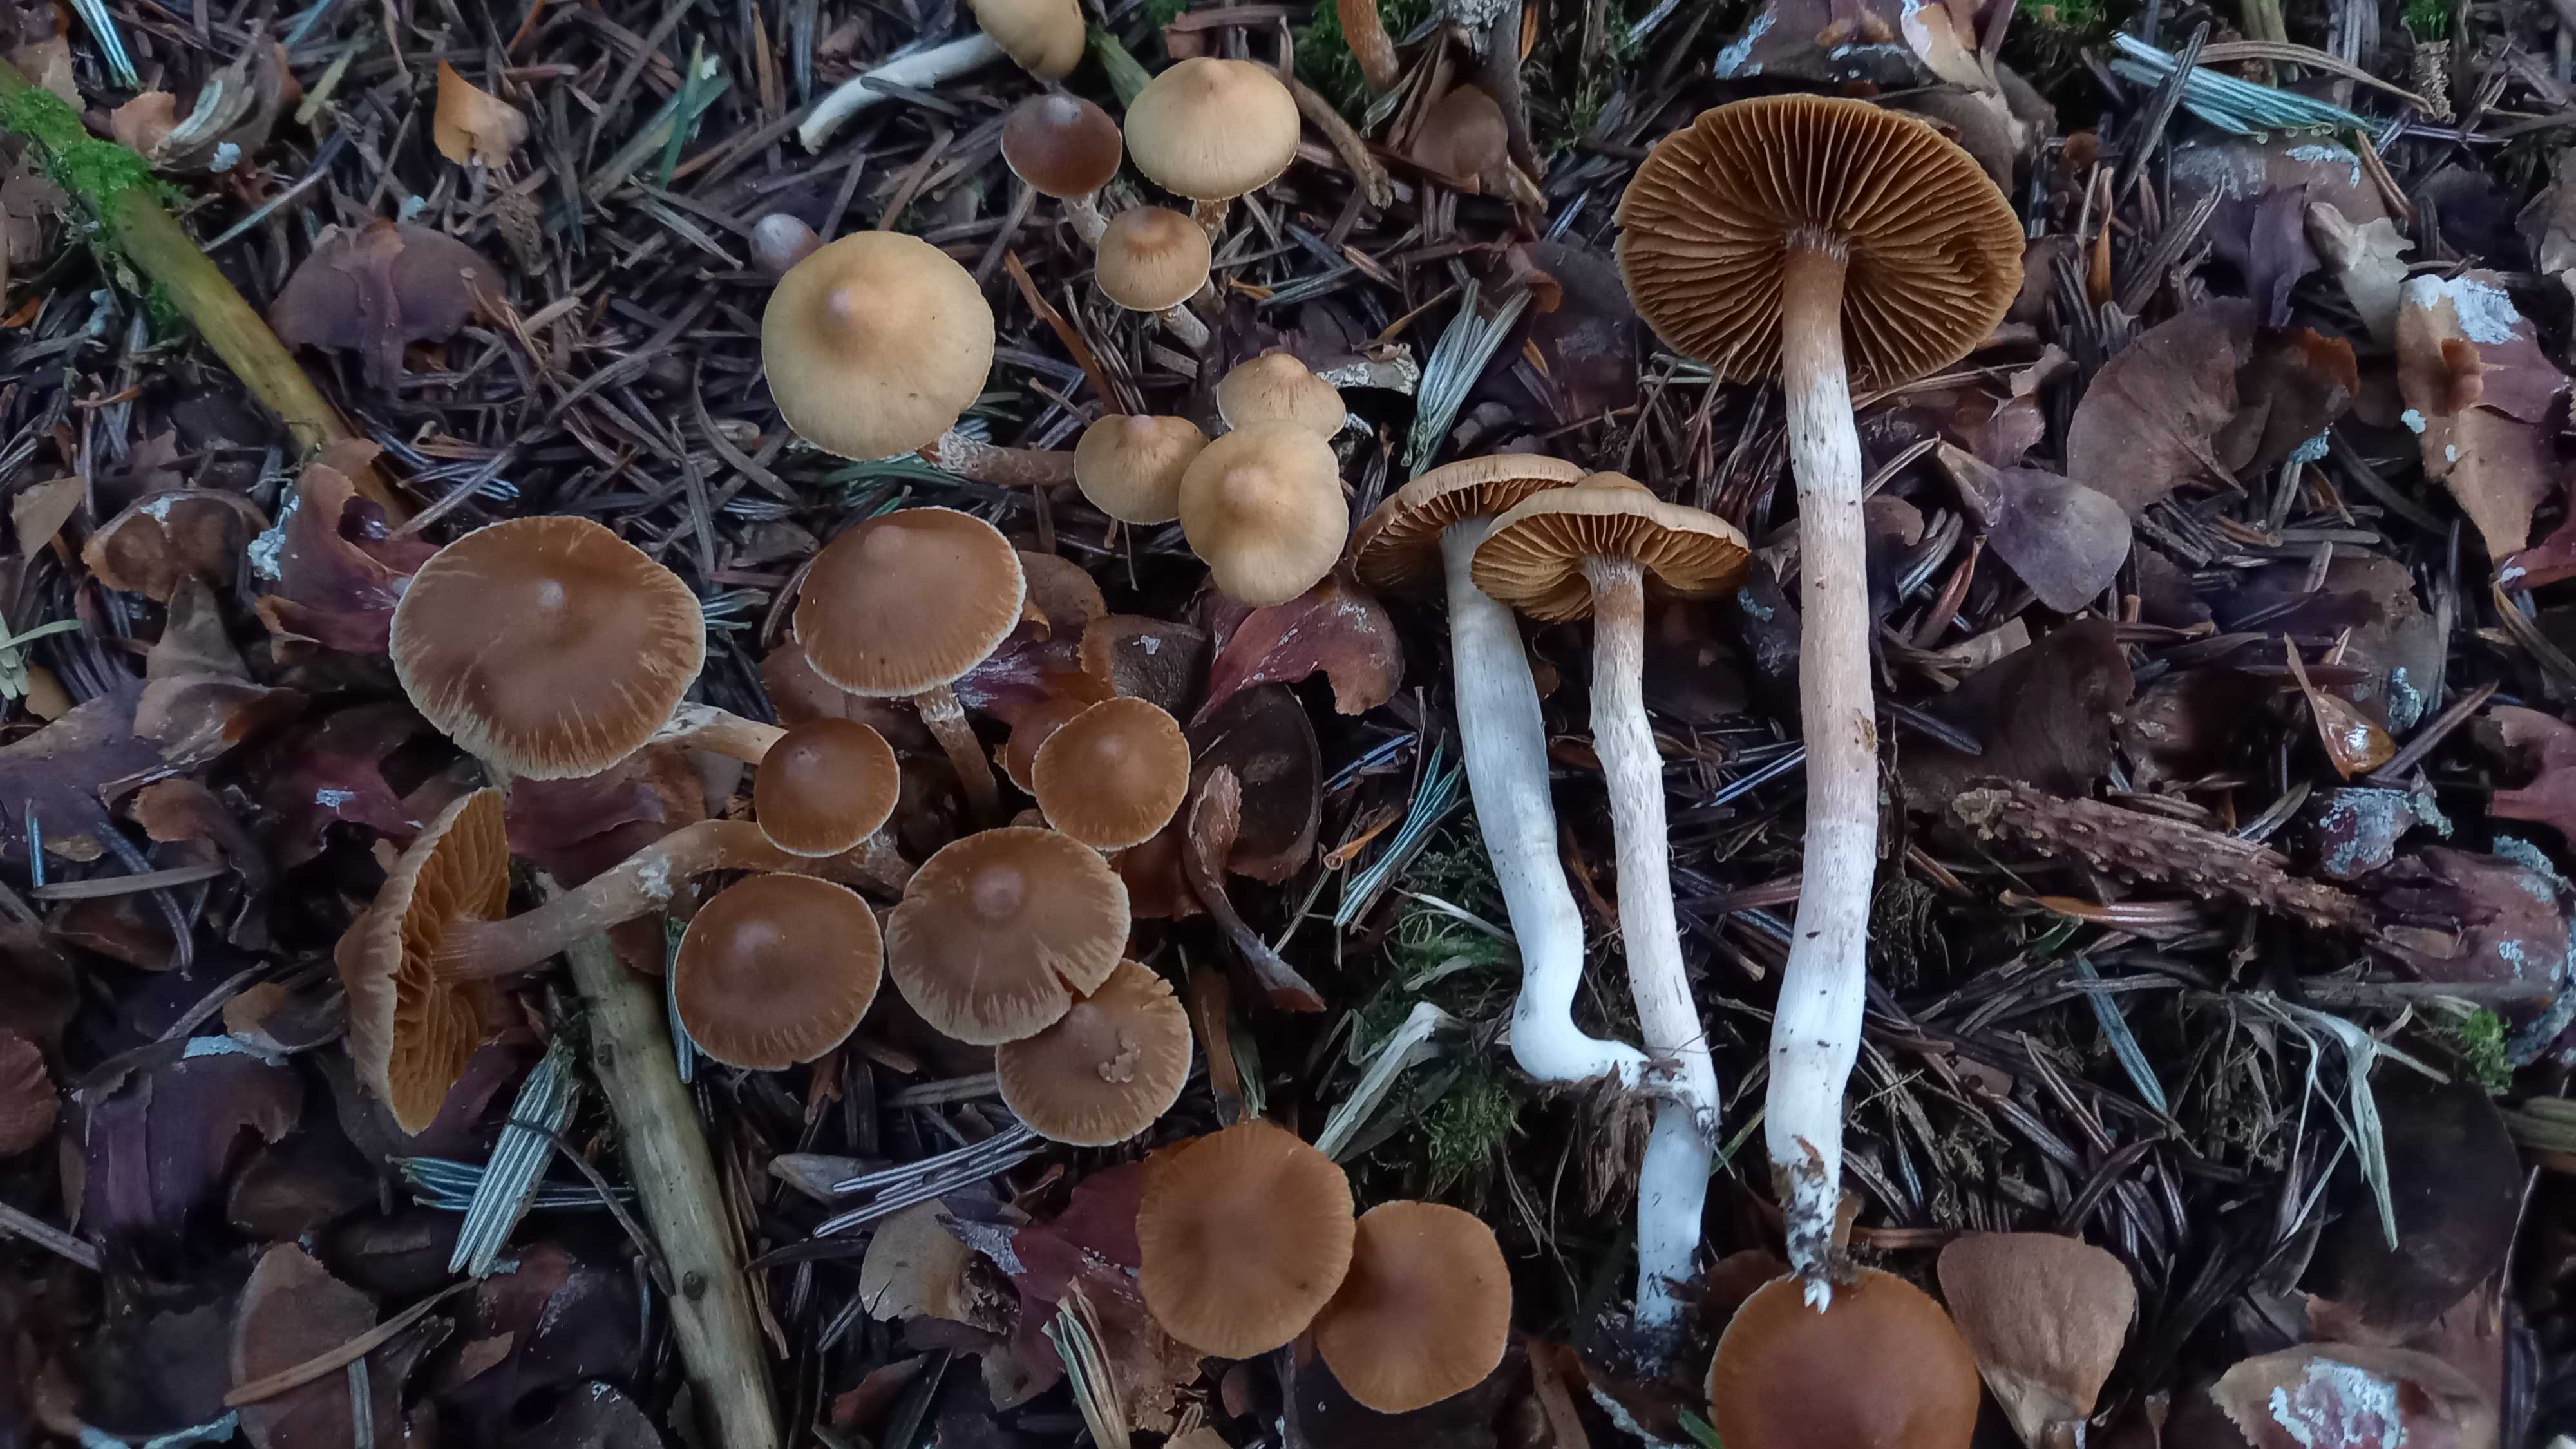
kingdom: Fungi
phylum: Basidiomycota
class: Agaricomycetes
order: Agaricales
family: Cortinariaceae
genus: Cortinarius
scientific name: Cortinarius
